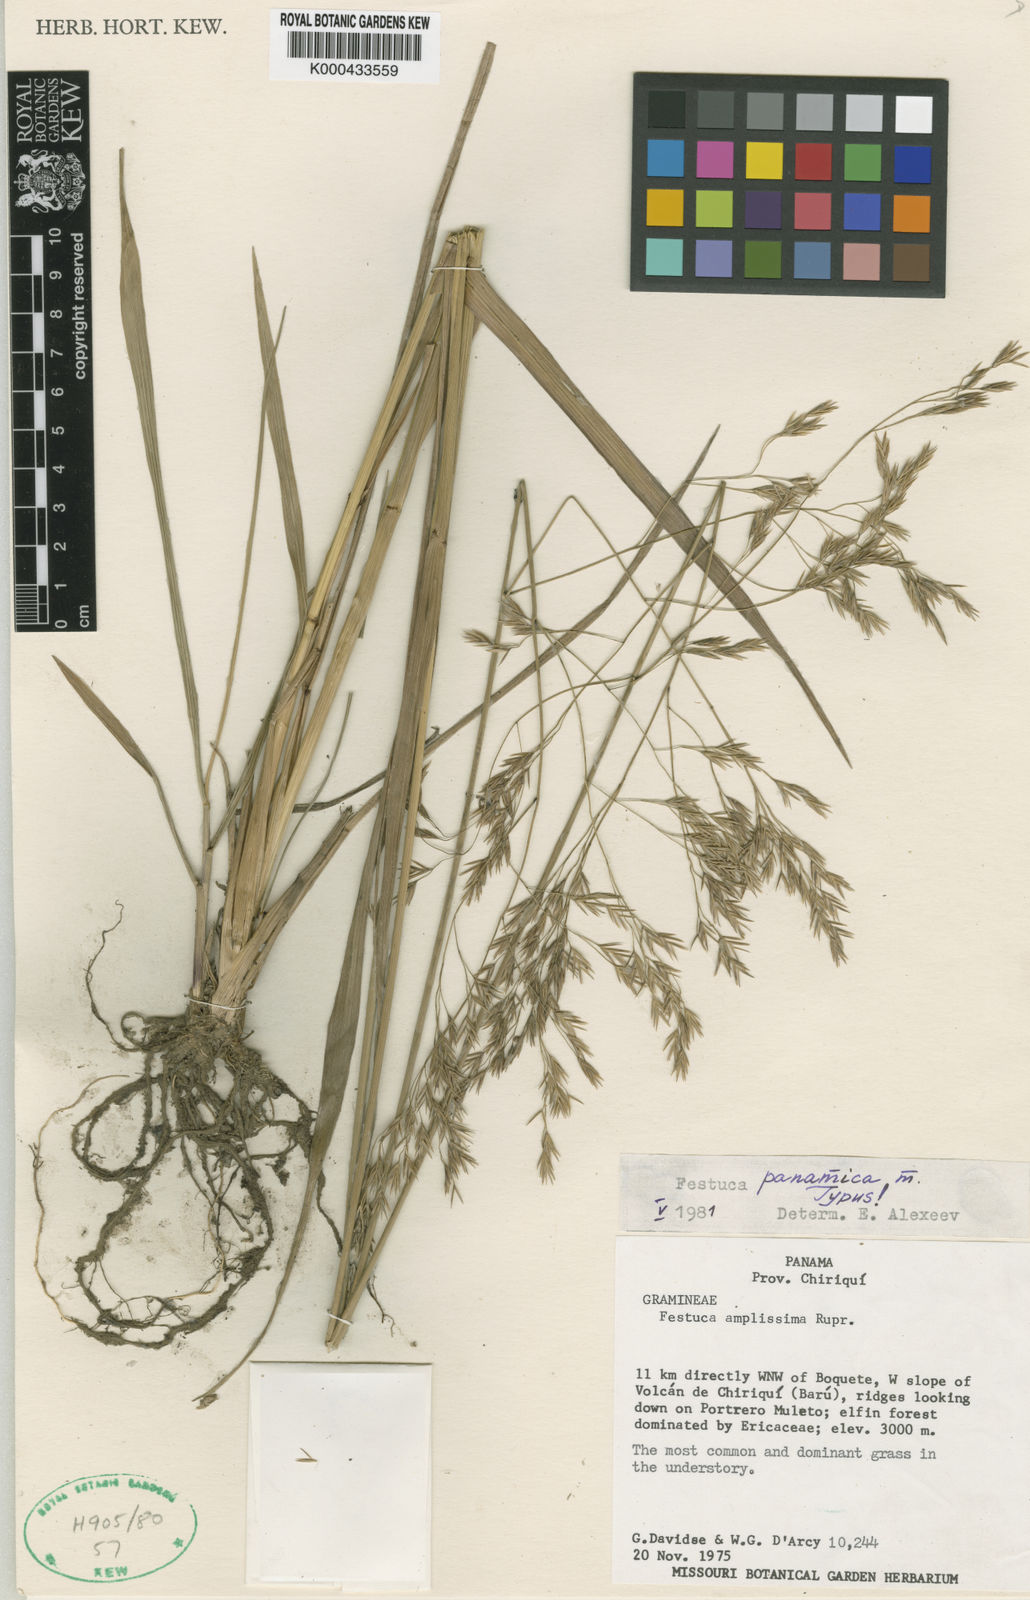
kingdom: Plantae
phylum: Tracheophyta
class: Liliopsida
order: Poales
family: Poaceae
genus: Festuca
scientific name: Festuca aguana
